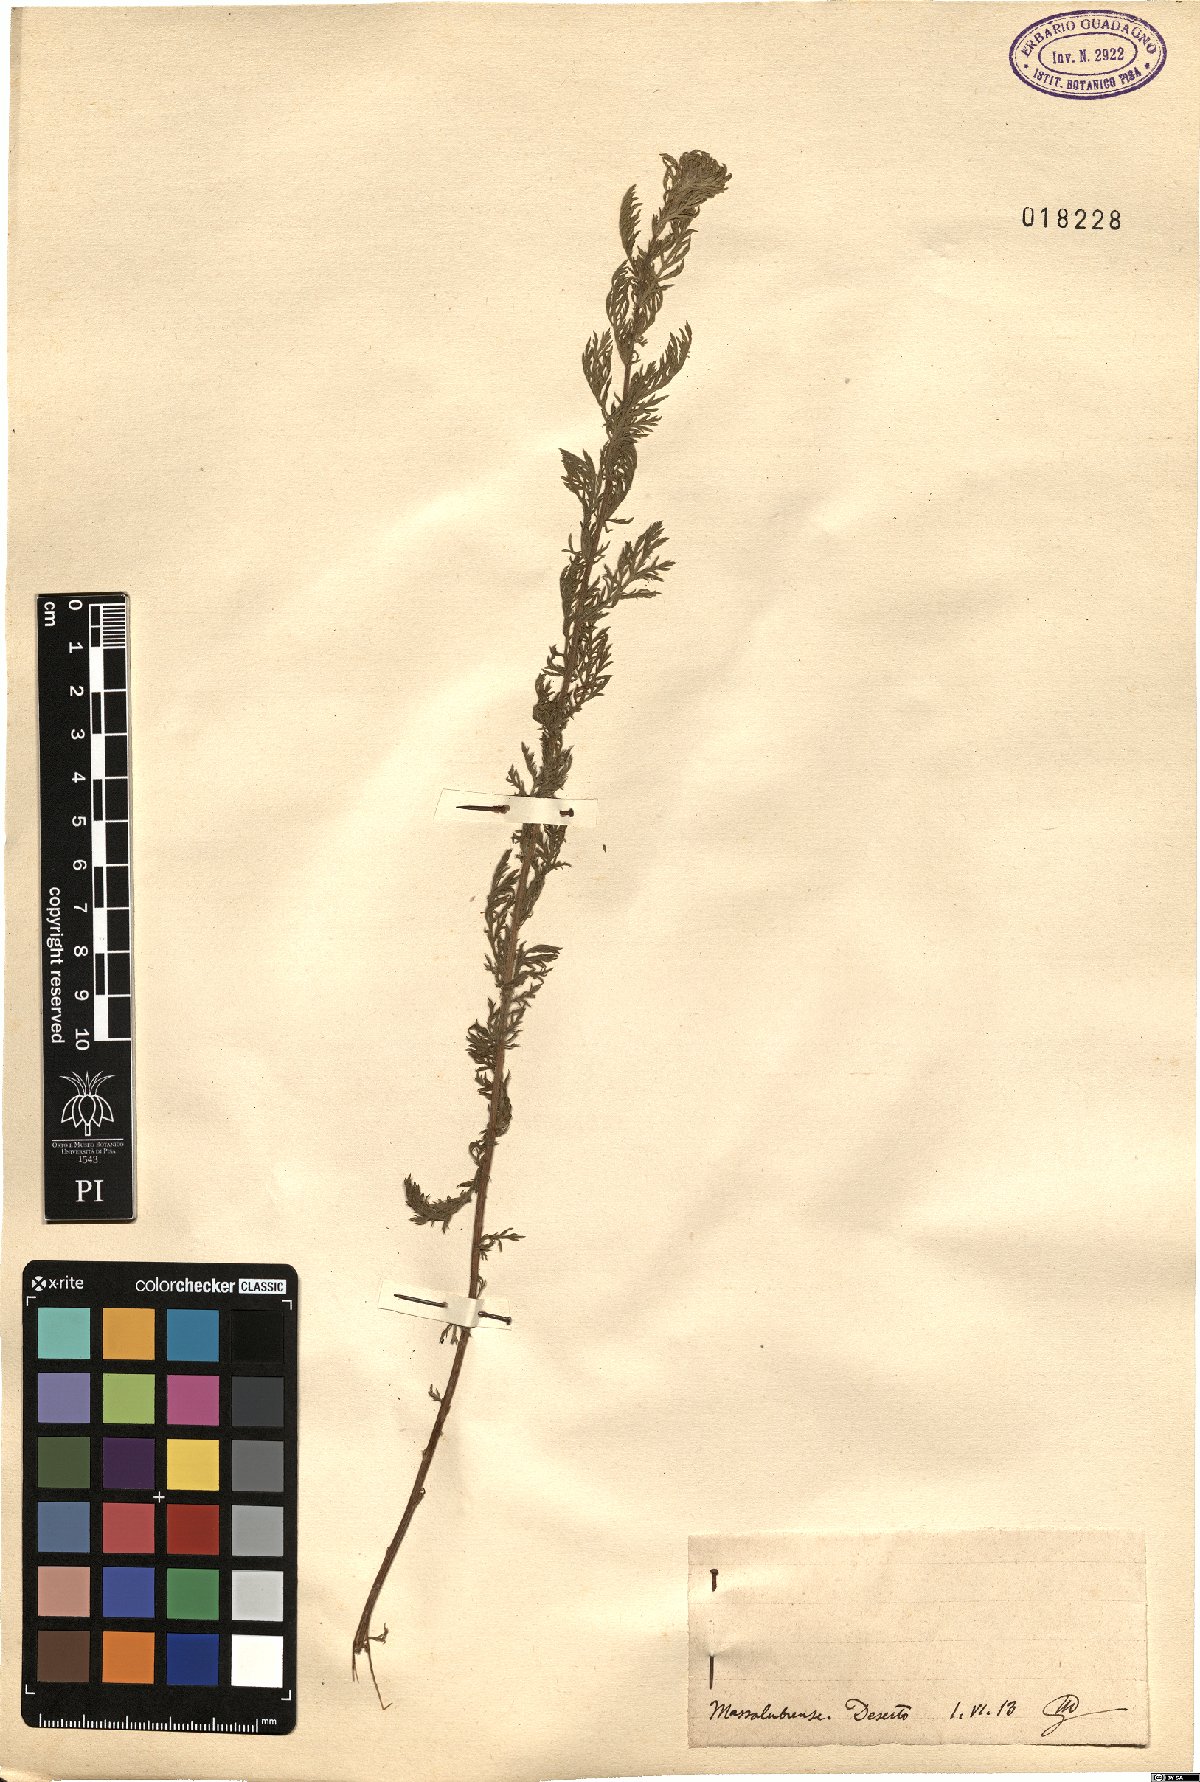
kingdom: Plantae
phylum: Tracheophyta
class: Magnoliopsida
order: Asterales
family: Asteraceae
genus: Achillea
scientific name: Achillea
